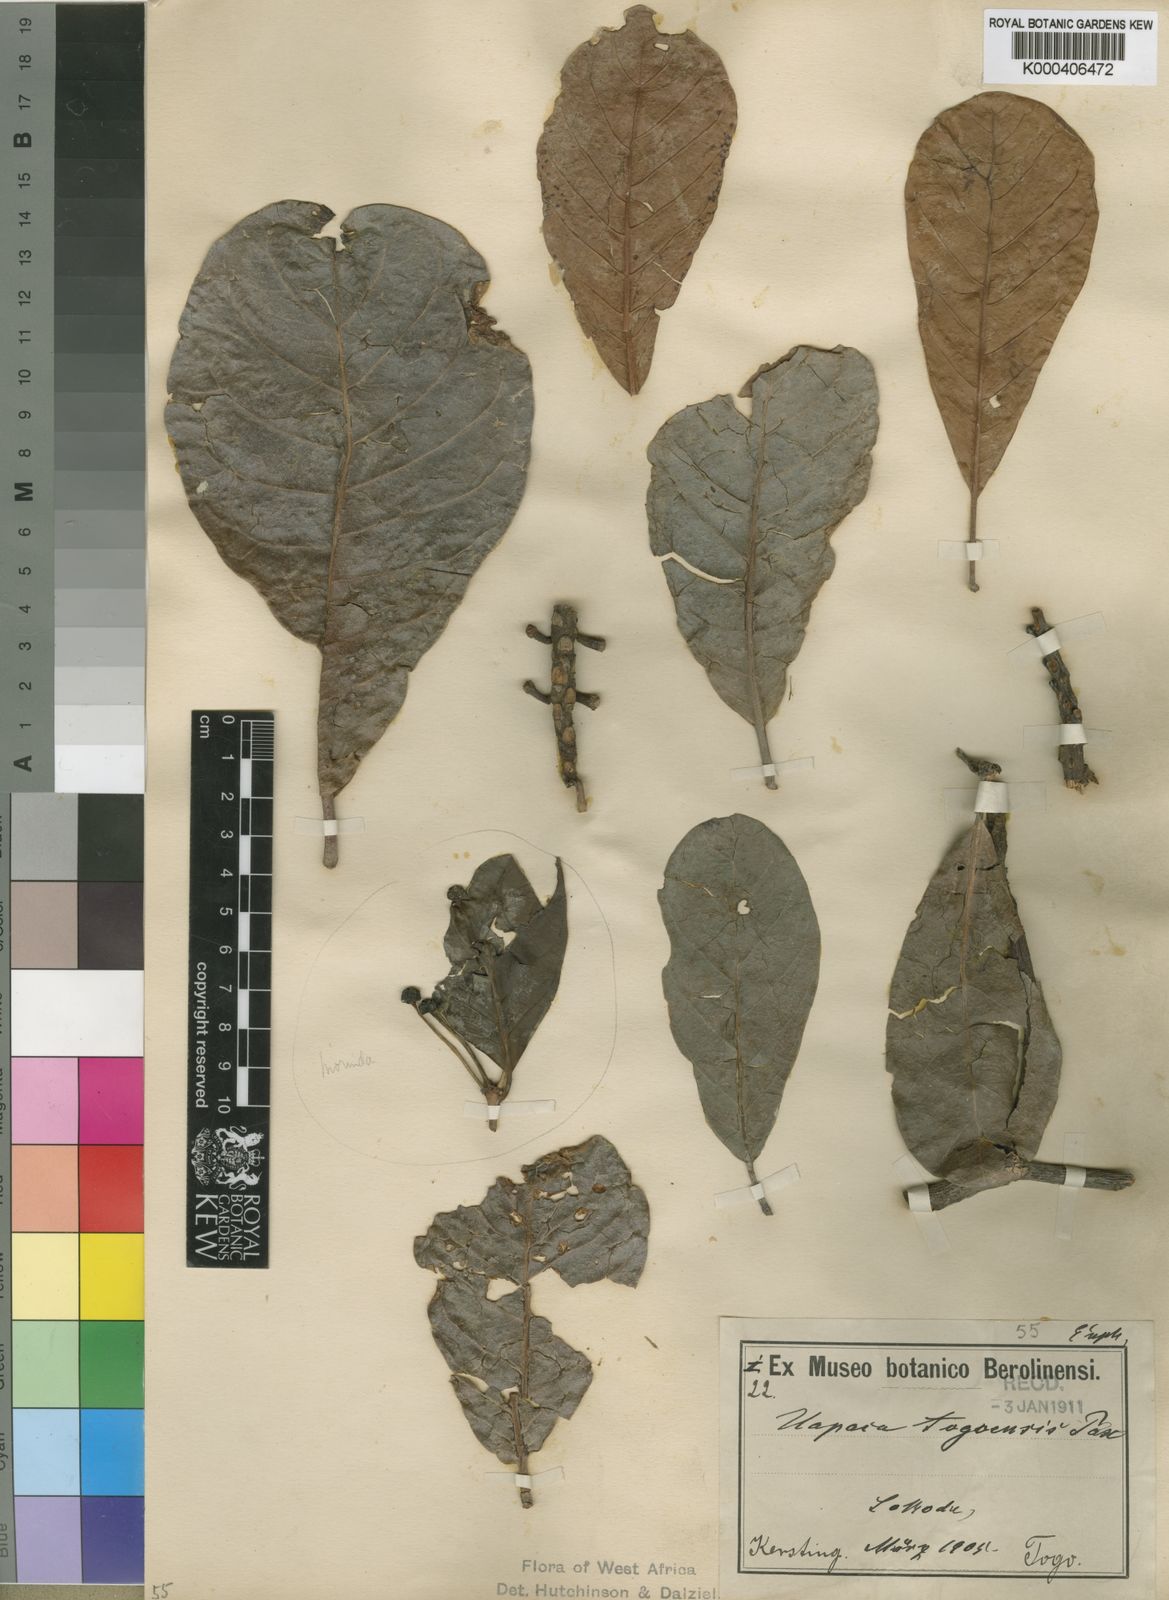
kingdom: Plantae
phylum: Tracheophyta
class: Magnoliopsida
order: Malpighiales
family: Phyllanthaceae
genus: Uapaca
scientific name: Uapaca togoensis
